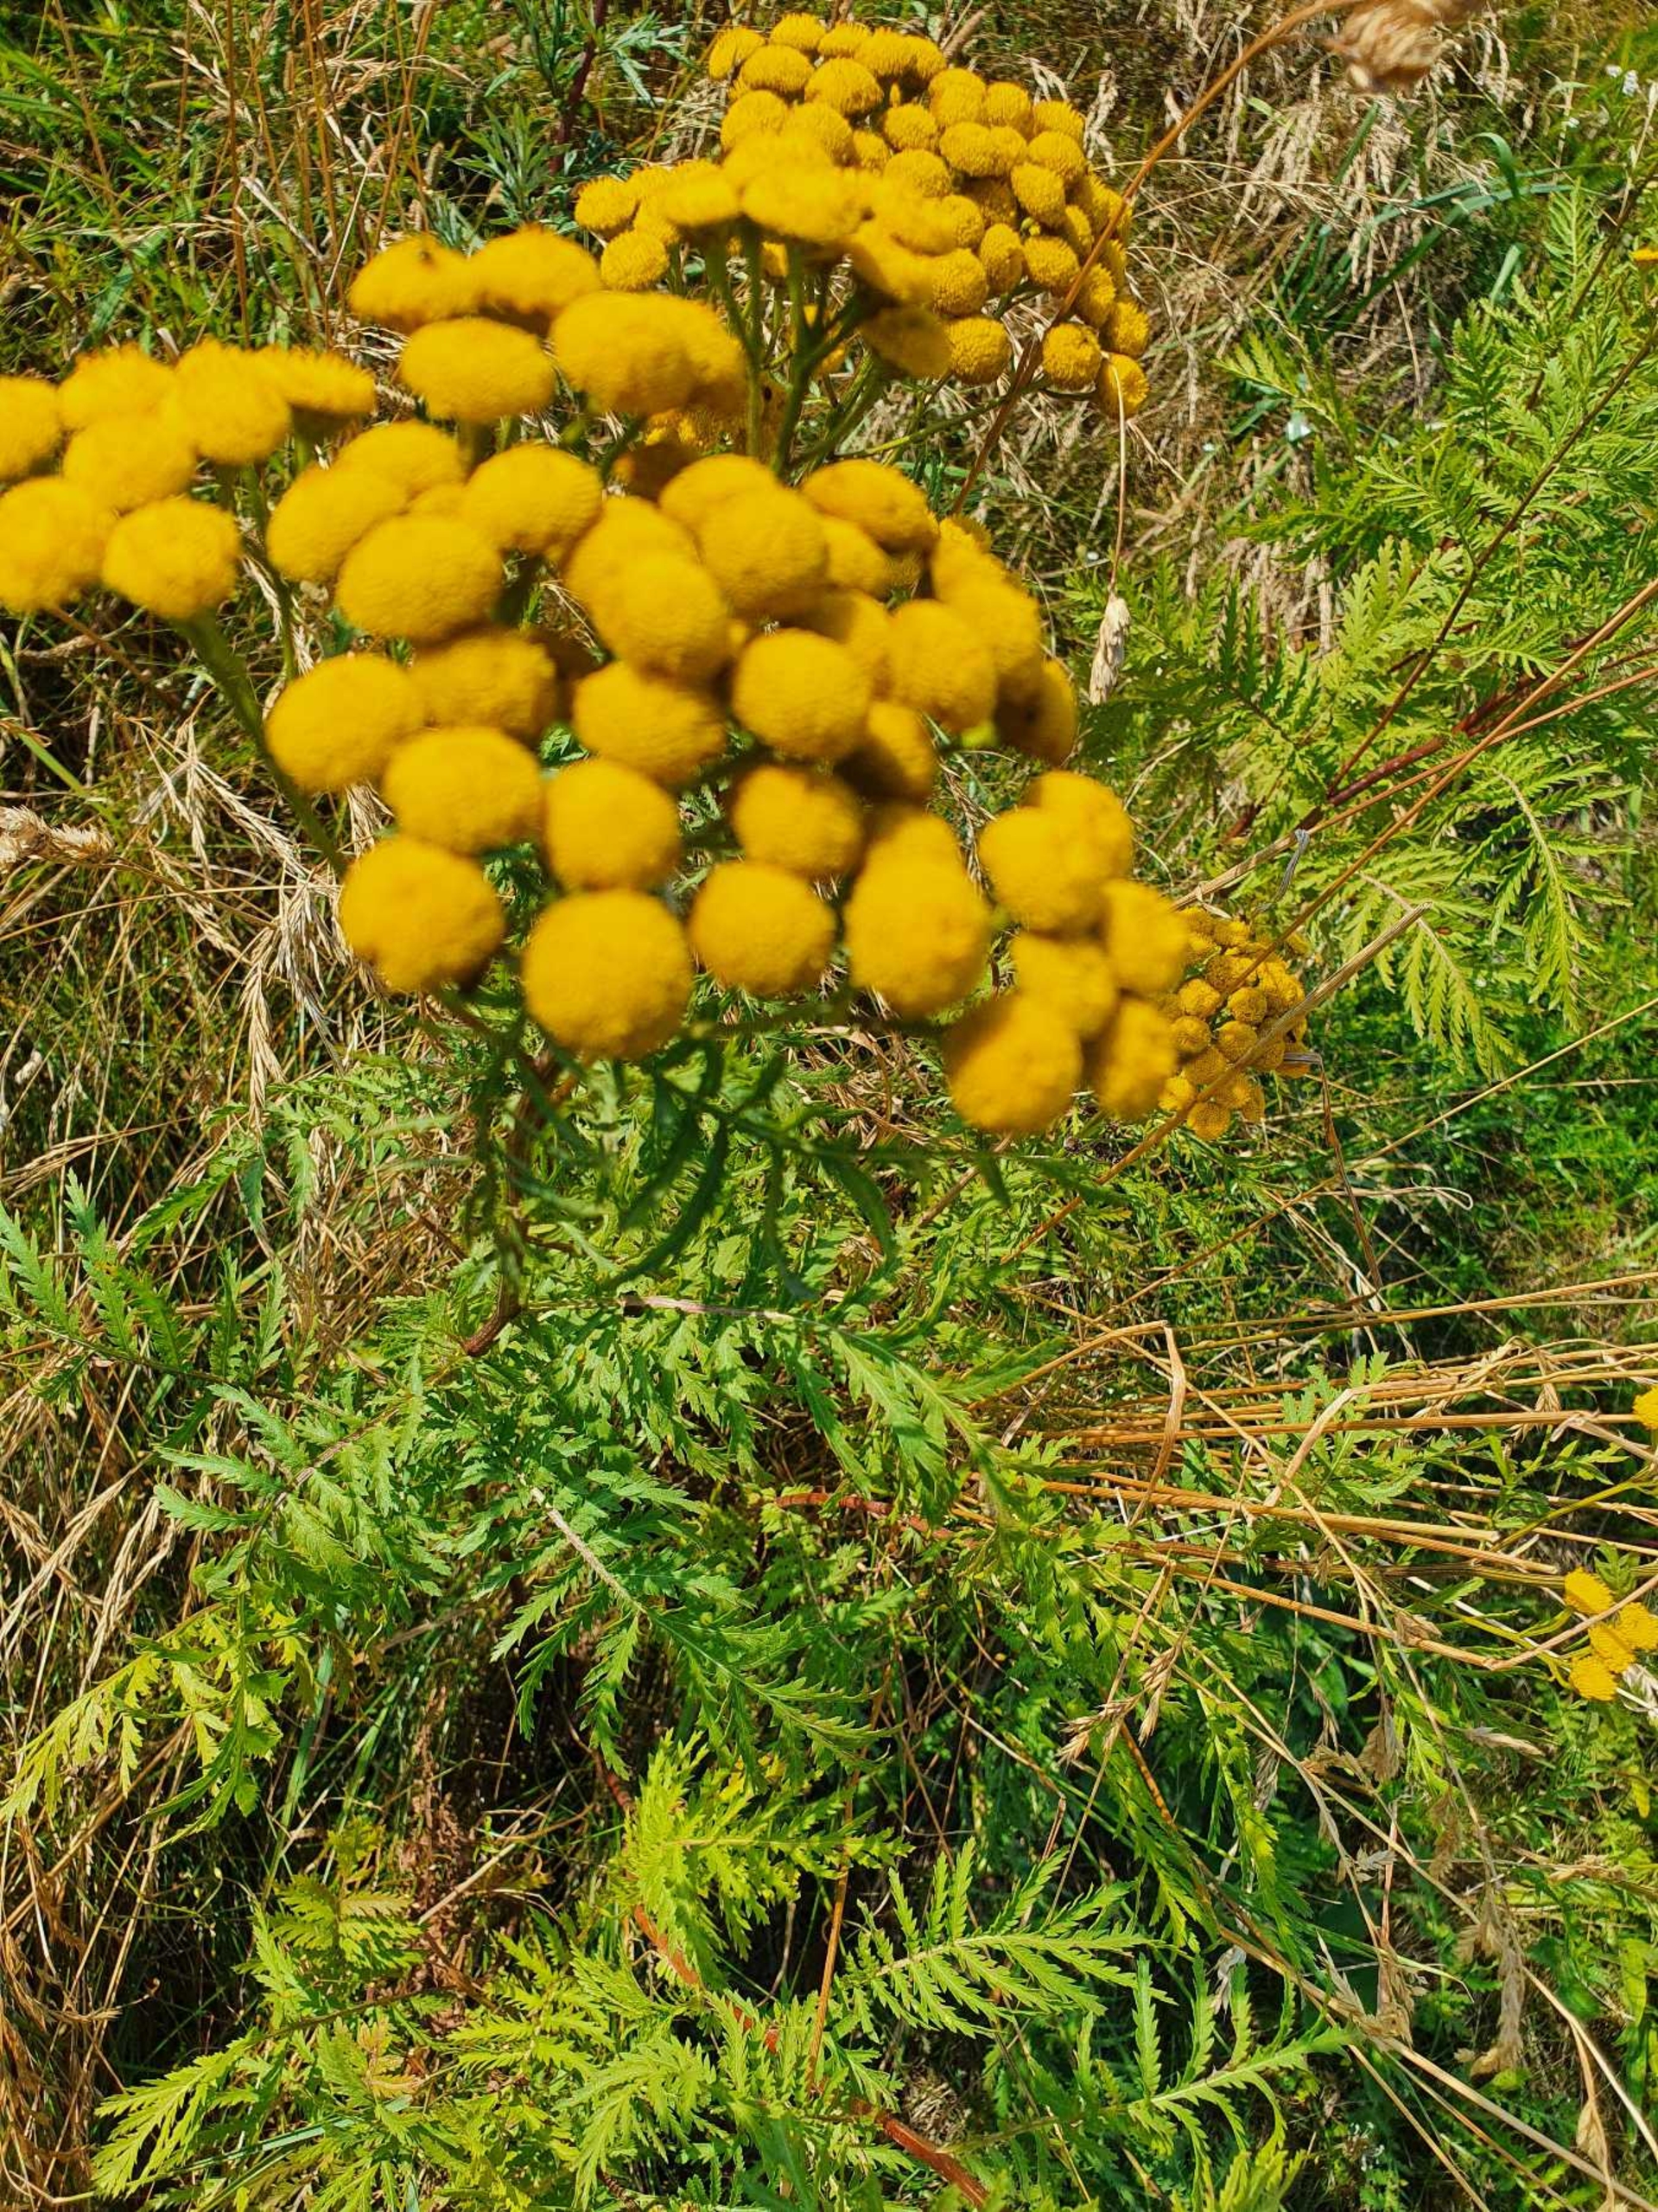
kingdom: Plantae
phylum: Tracheophyta
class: Magnoliopsida
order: Asterales
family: Asteraceae
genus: Tanacetum
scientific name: Tanacetum vulgare
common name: Rejnfan
